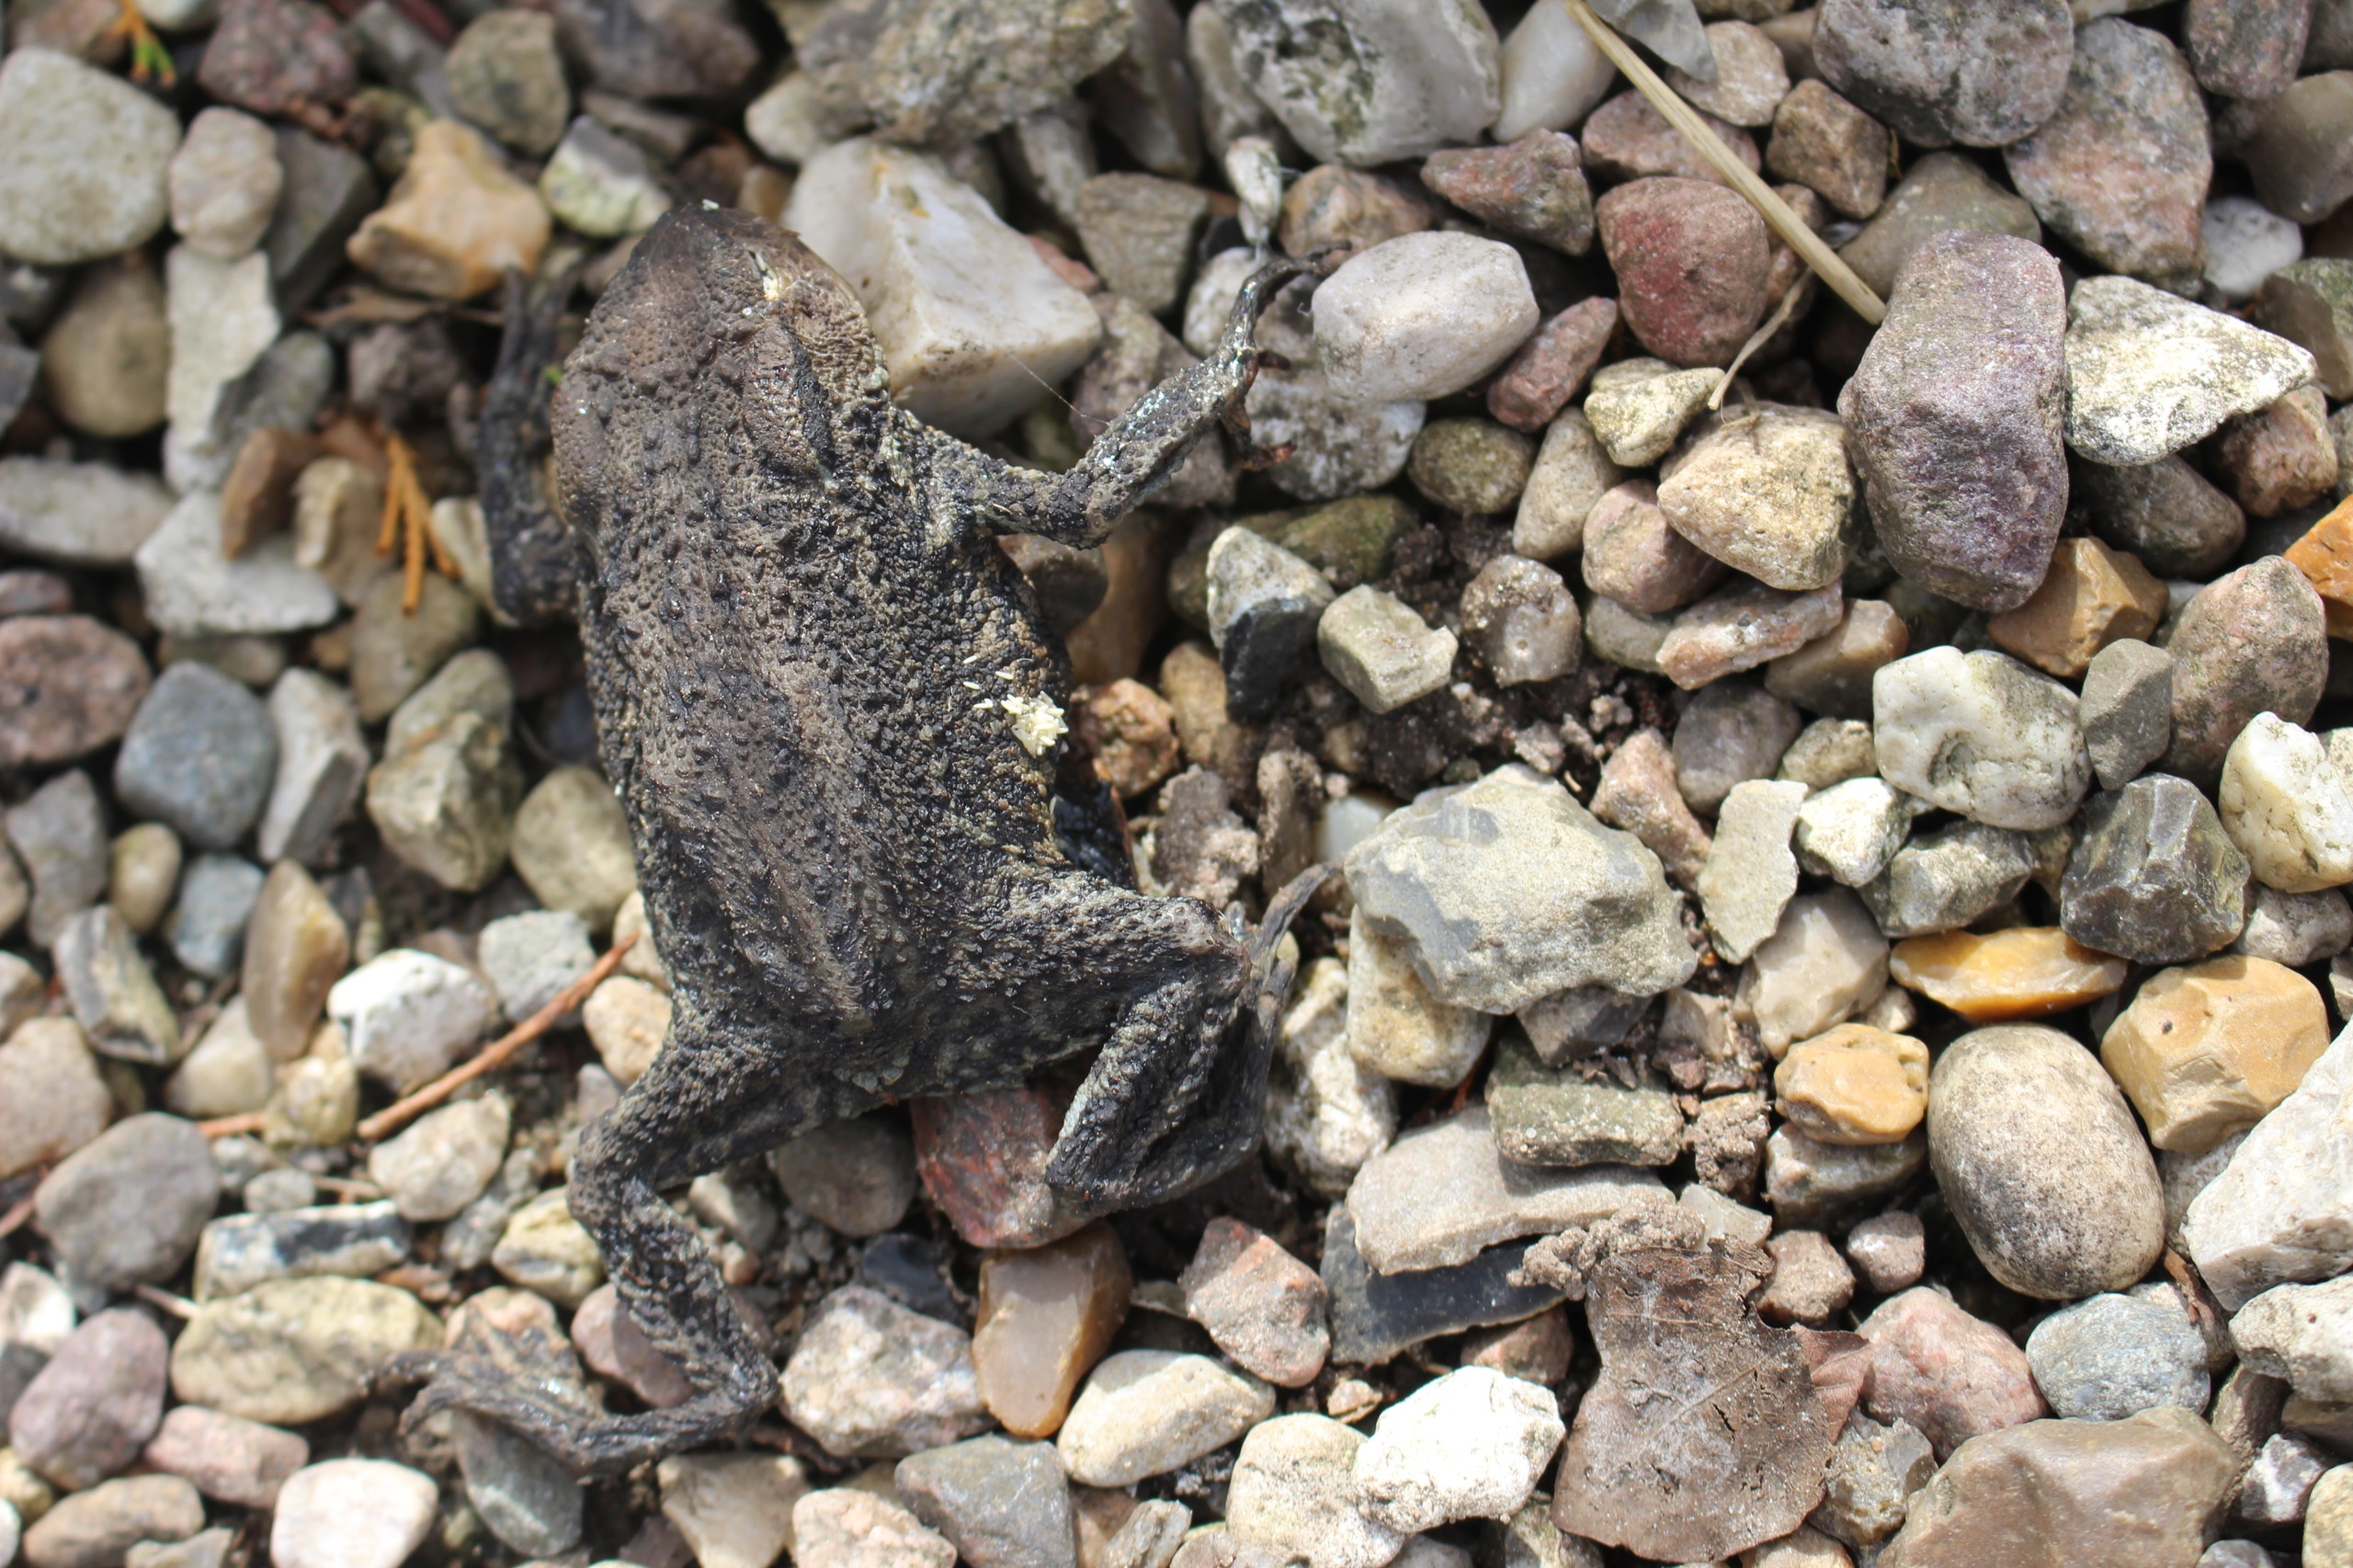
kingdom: Animalia
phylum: Chordata
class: Amphibia
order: Anura
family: Bufonidae
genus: Bufo
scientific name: Bufo bufo
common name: Skrubtudse
